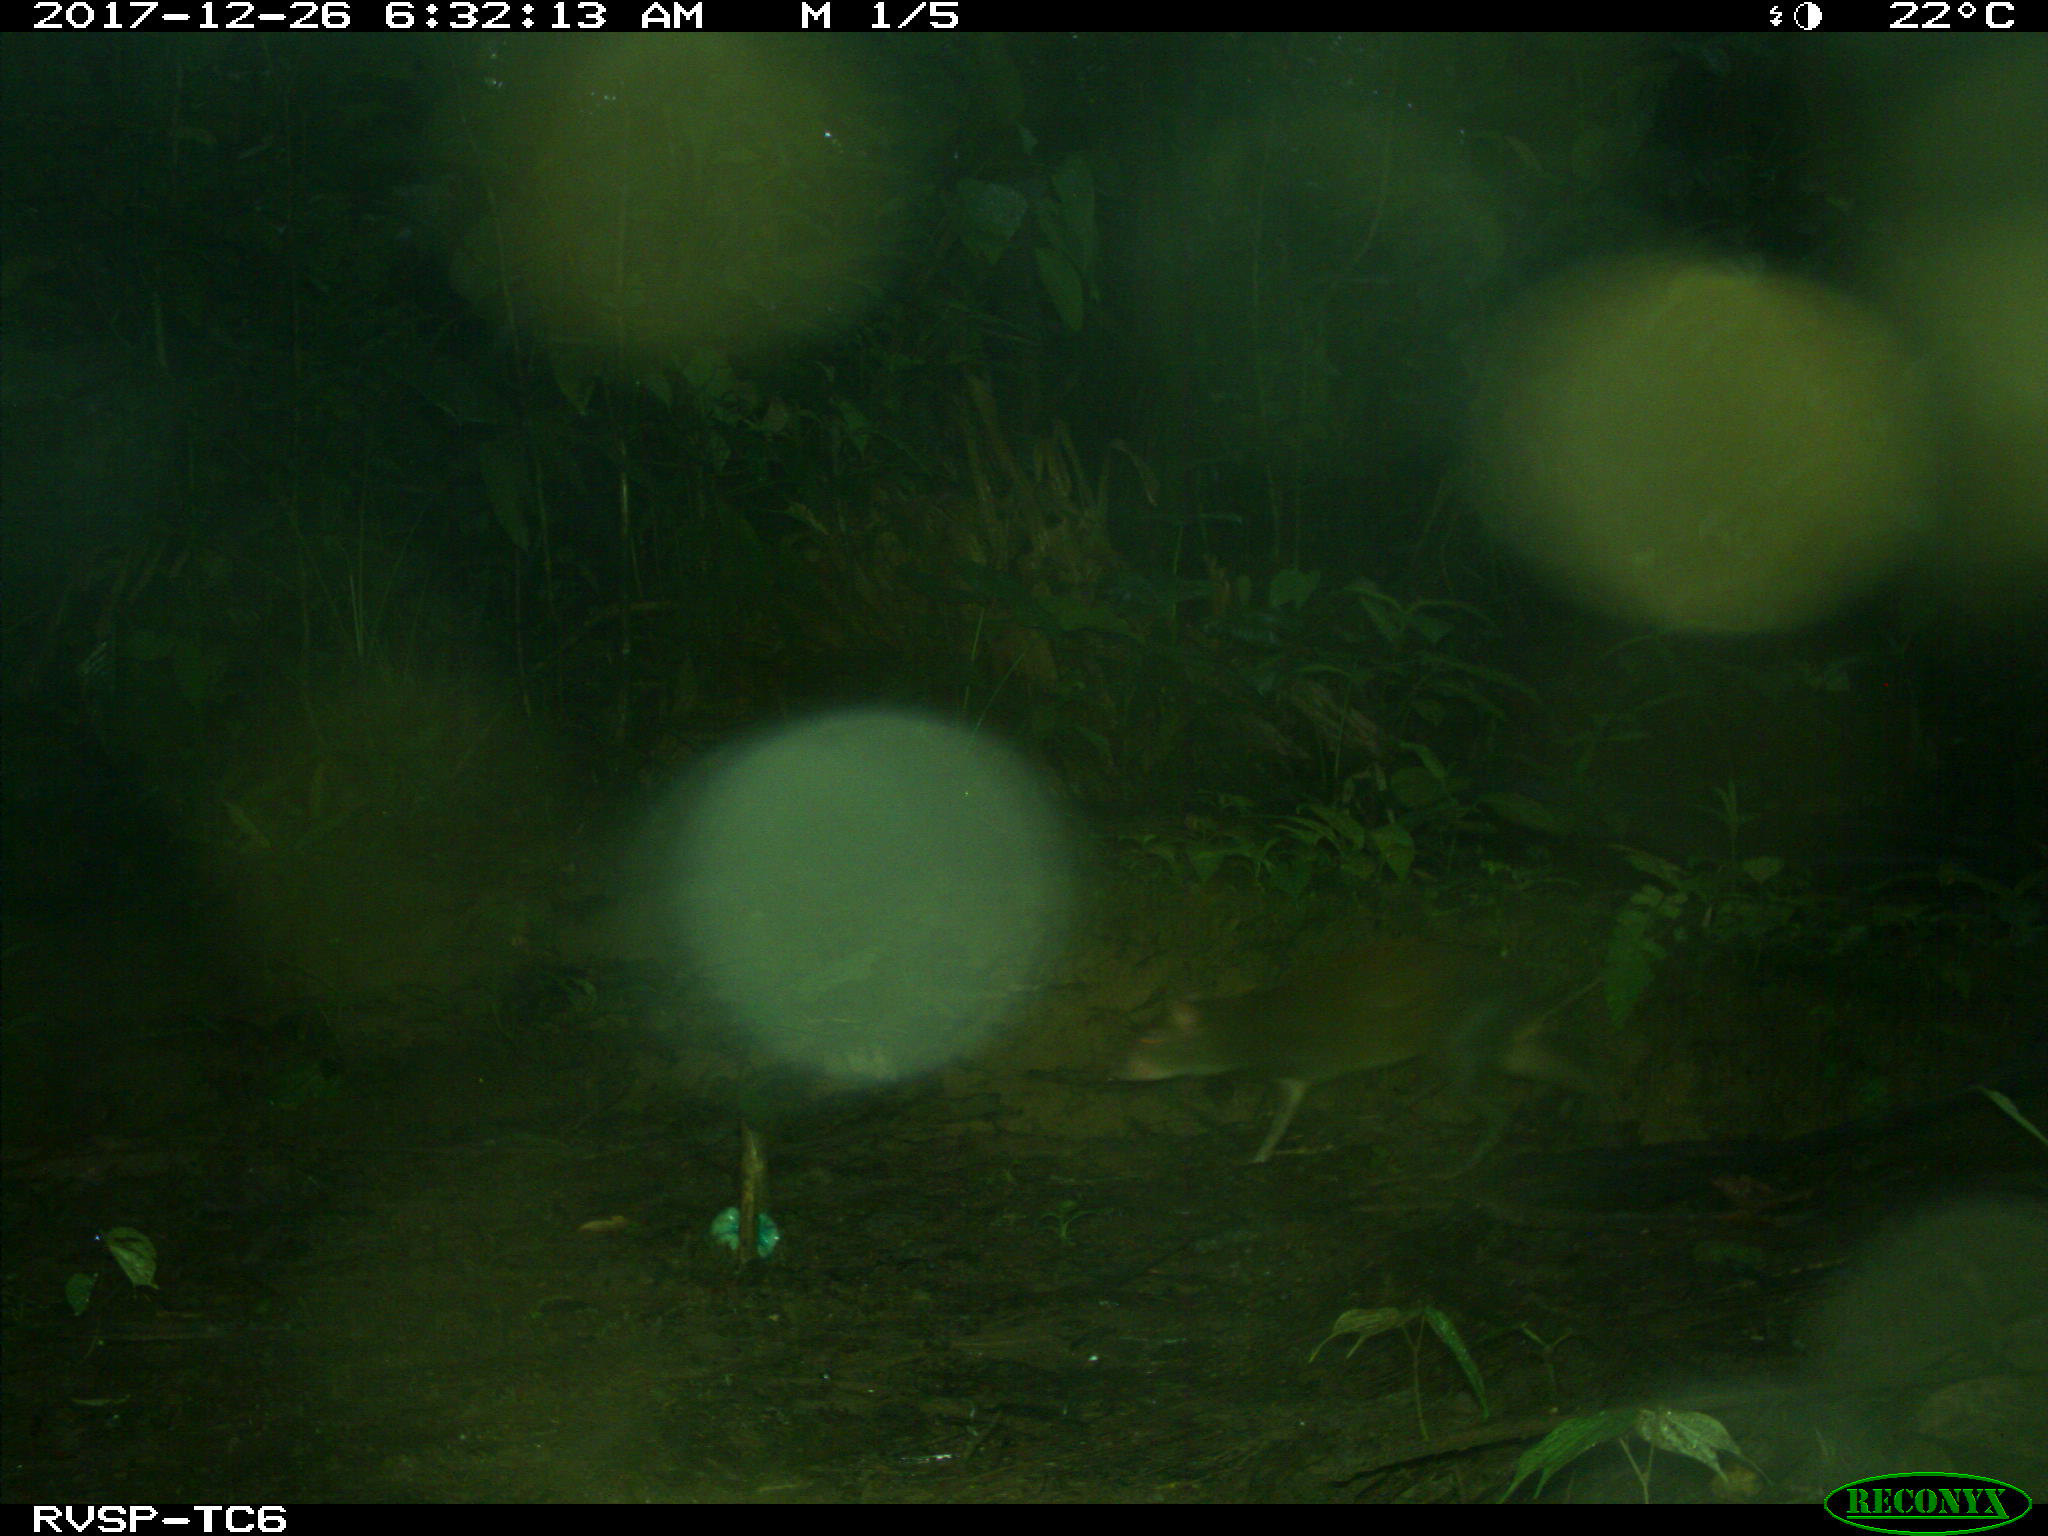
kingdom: Animalia
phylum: Chordata
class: Mammalia
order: Rodentia
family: Dasyproctidae
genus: Dasyprocta
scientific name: Dasyprocta punctata
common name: Central american agouti
